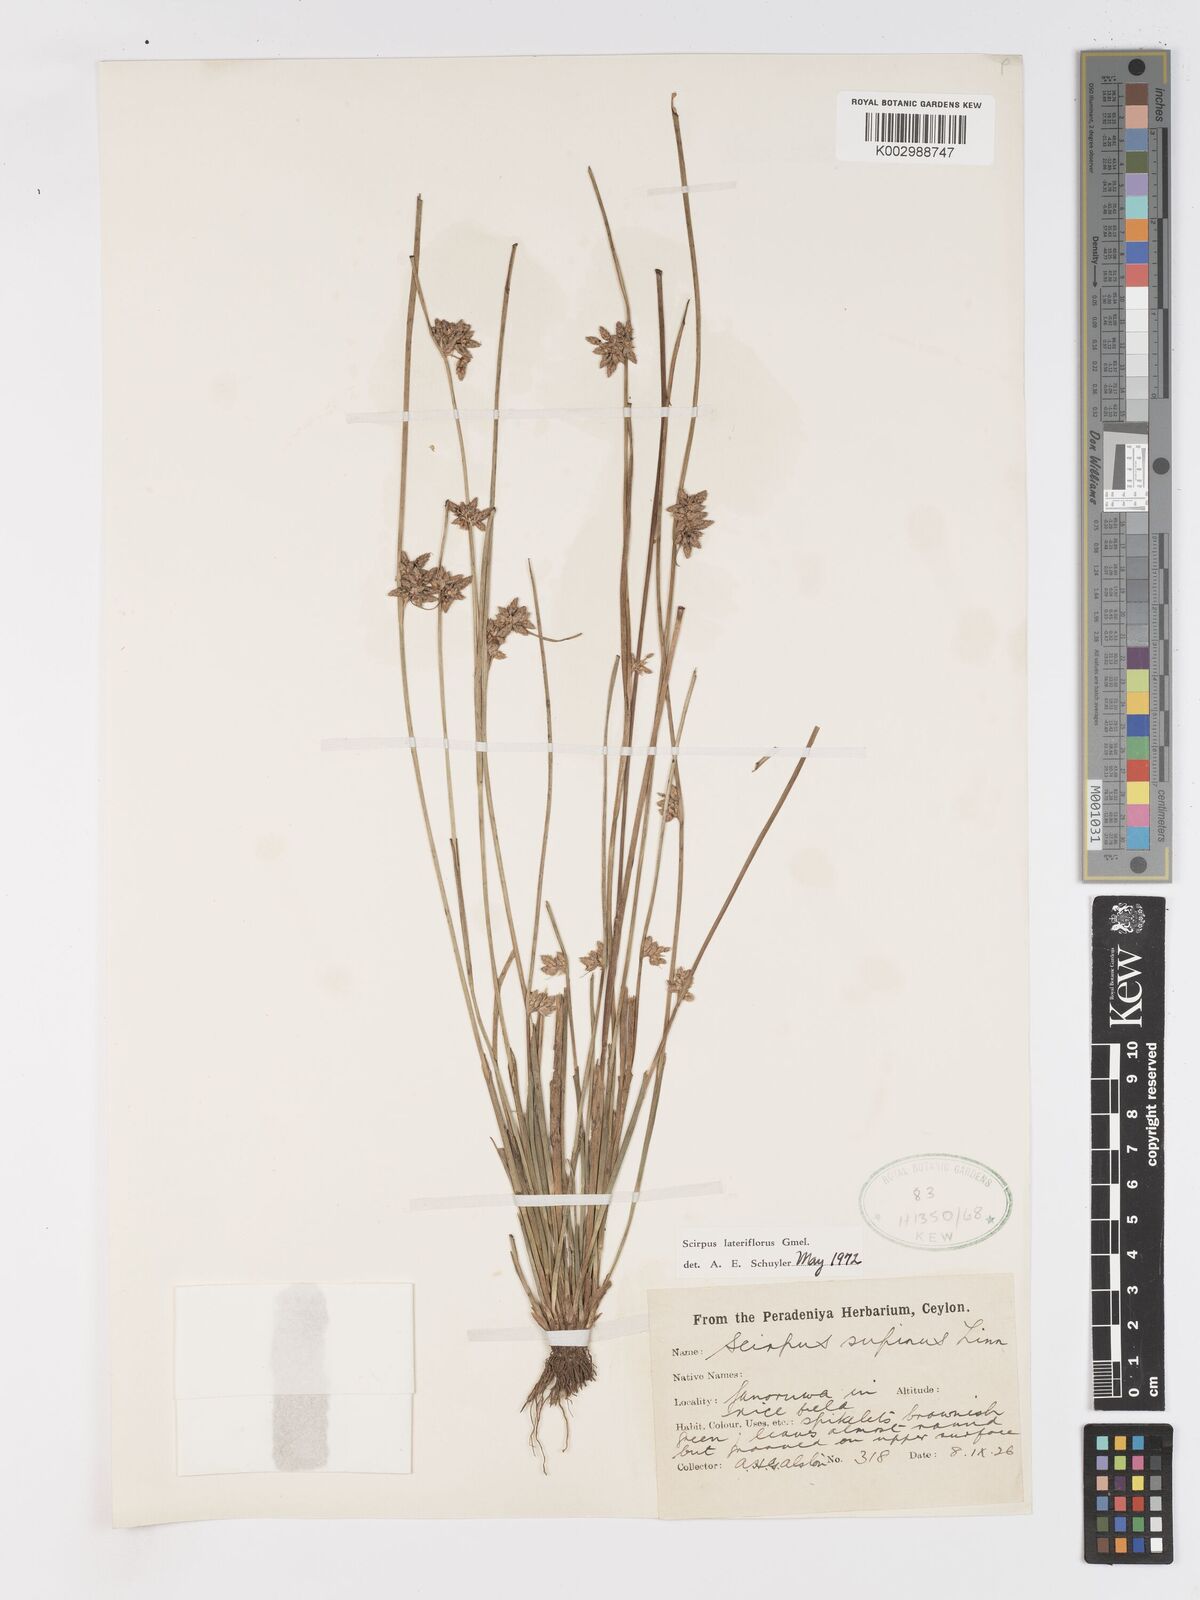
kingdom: Plantae
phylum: Tracheophyta
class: Liliopsida
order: Poales
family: Cyperaceae
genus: Schoenoplectiella
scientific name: Schoenoplectiella lateriflora
